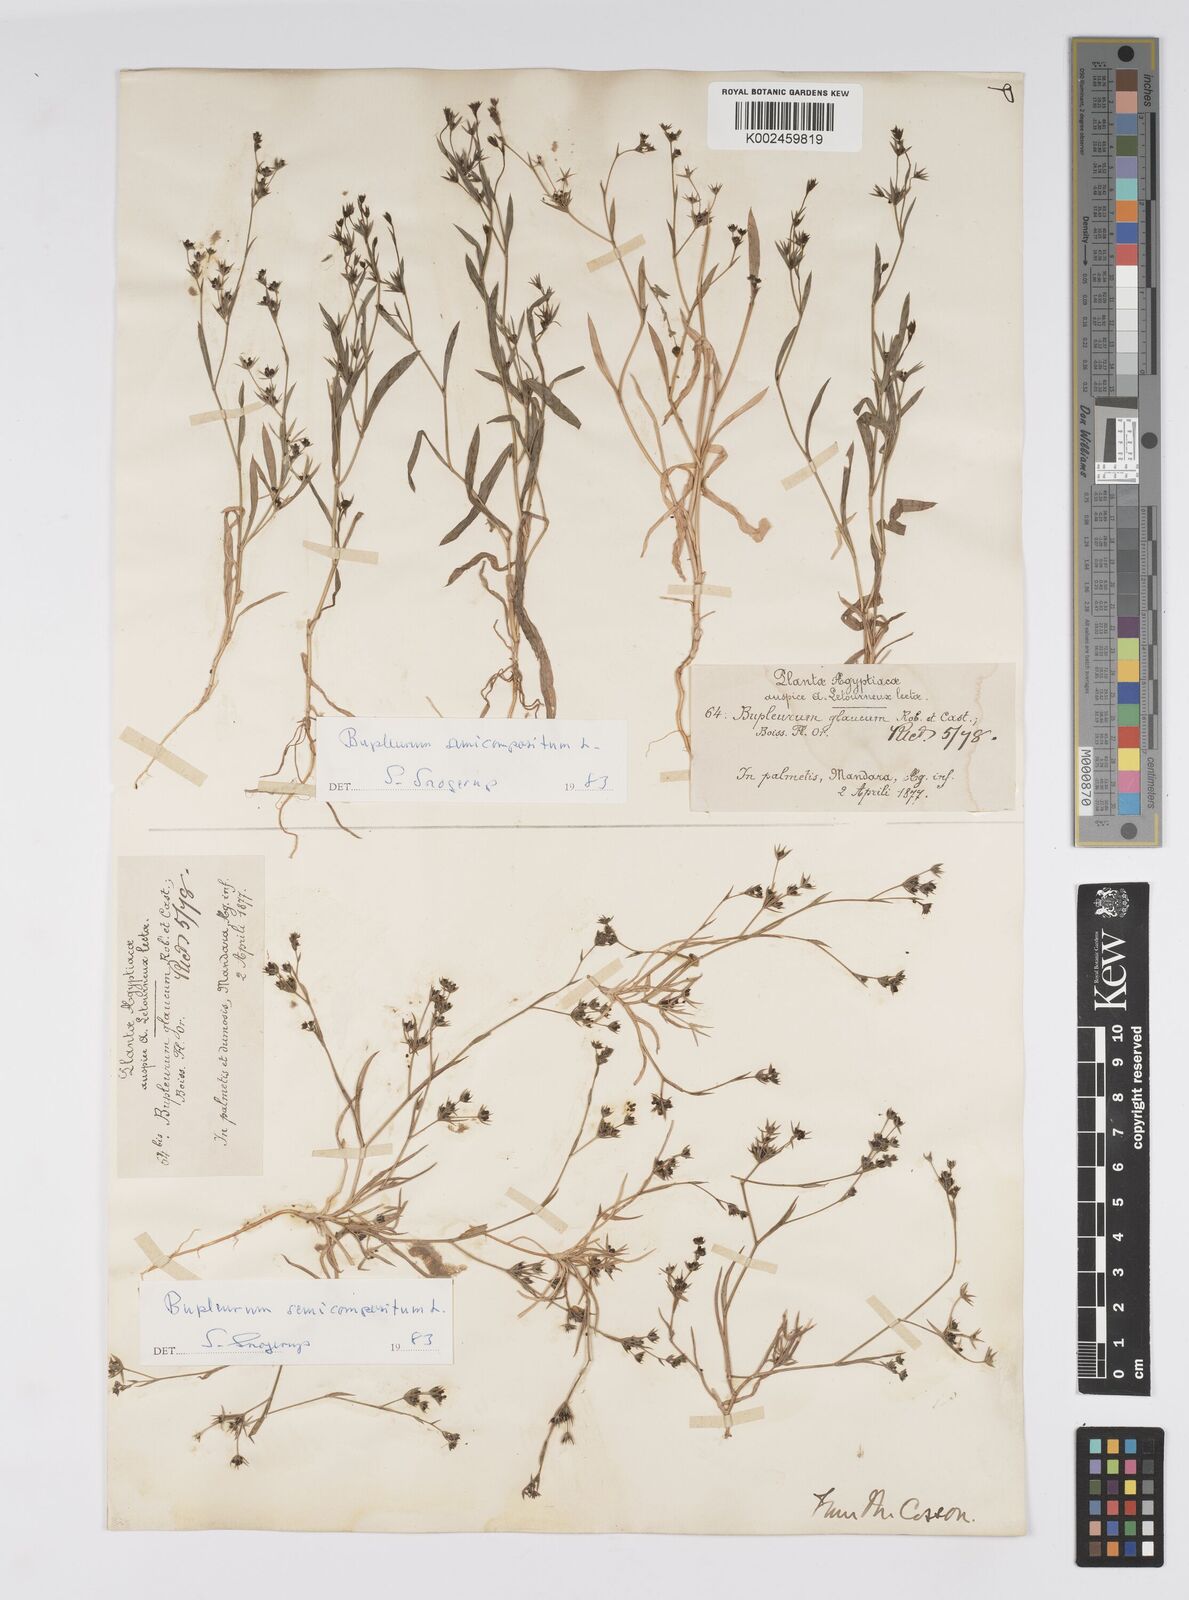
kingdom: Plantae
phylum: Tracheophyta
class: Magnoliopsida
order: Apiales
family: Apiaceae
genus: Bupleurum
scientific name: Bupleurum semicompositum
